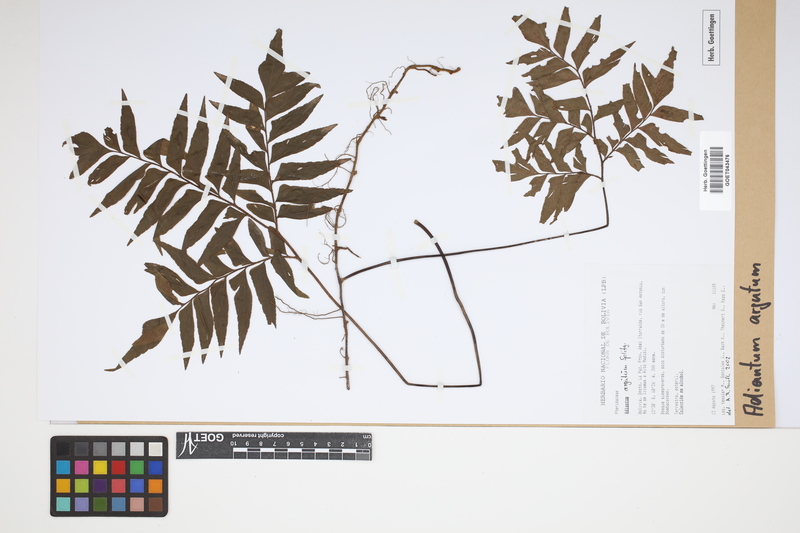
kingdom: Plantae
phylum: Tracheophyta
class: Polypodiopsida
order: Polypodiales
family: Pteridaceae
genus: Adiantum
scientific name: Adiantum argutum
